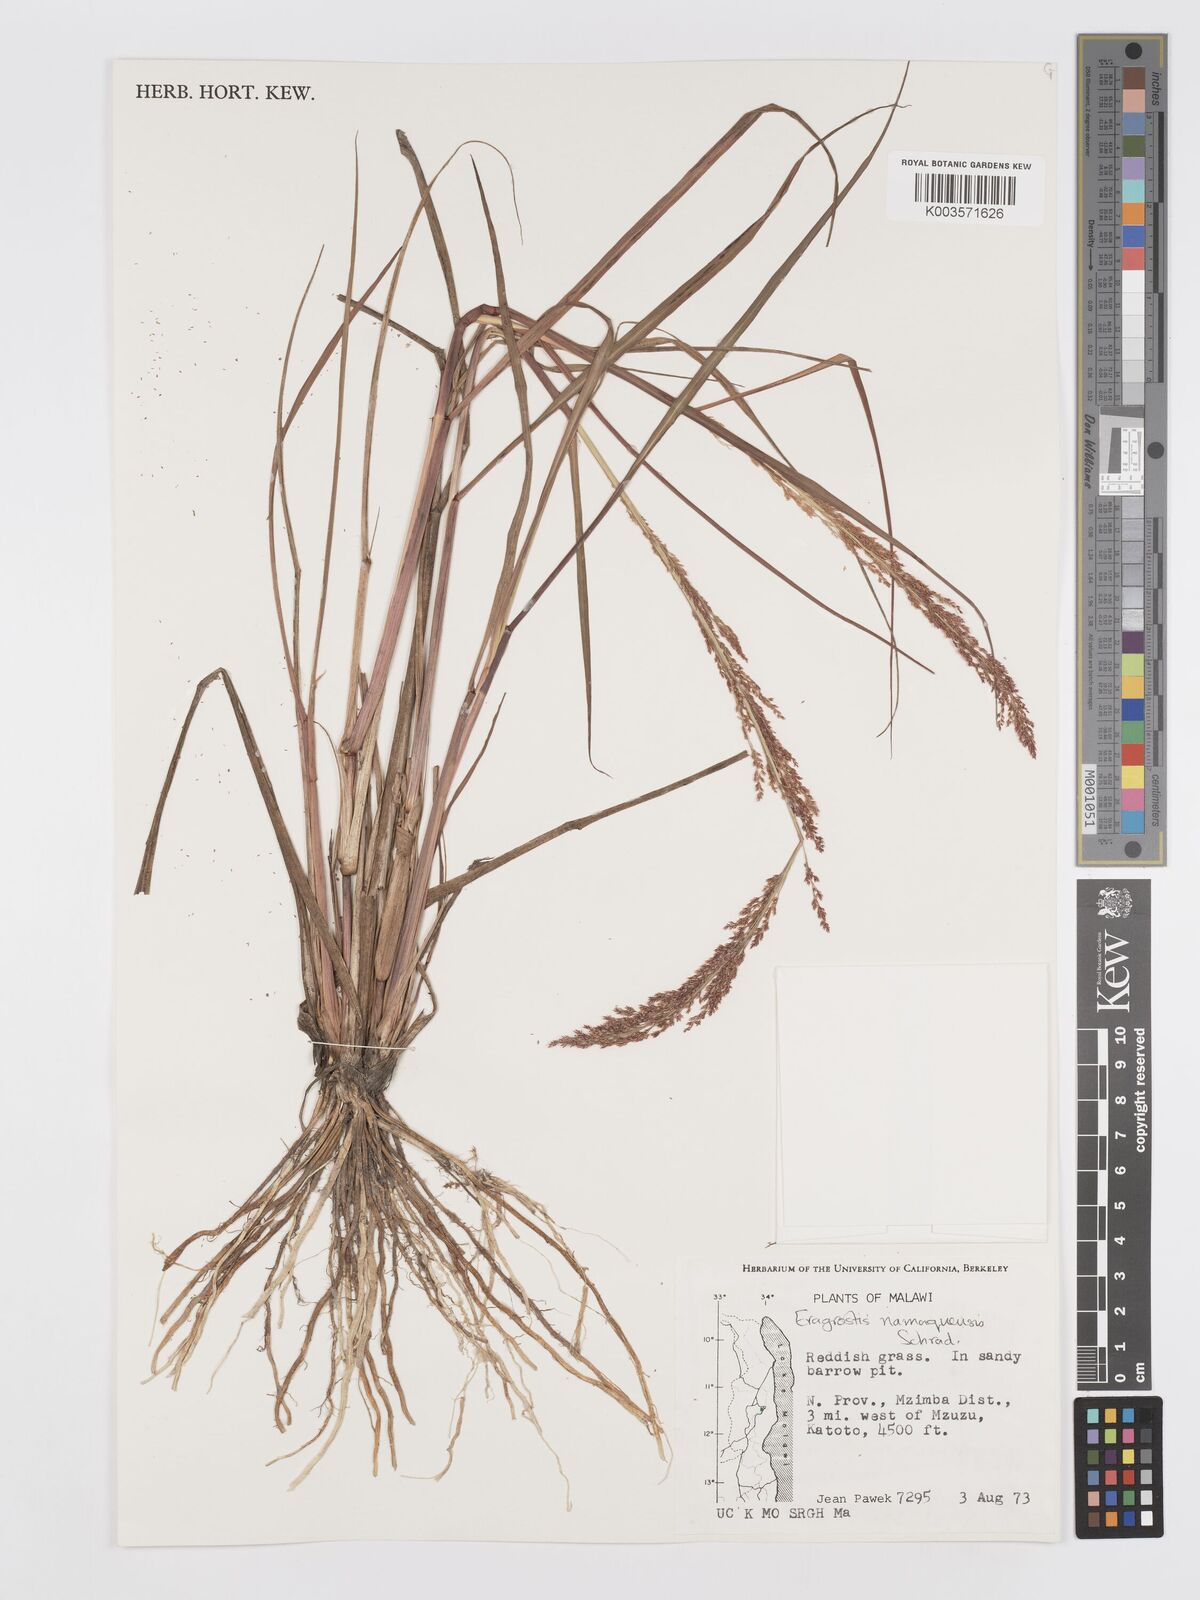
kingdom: Plantae
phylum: Tracheophyta
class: Liliopsida
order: Poales
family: Poaceae
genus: Eragrostis
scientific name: Eragrostis japonica
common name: Pond lovegrass
